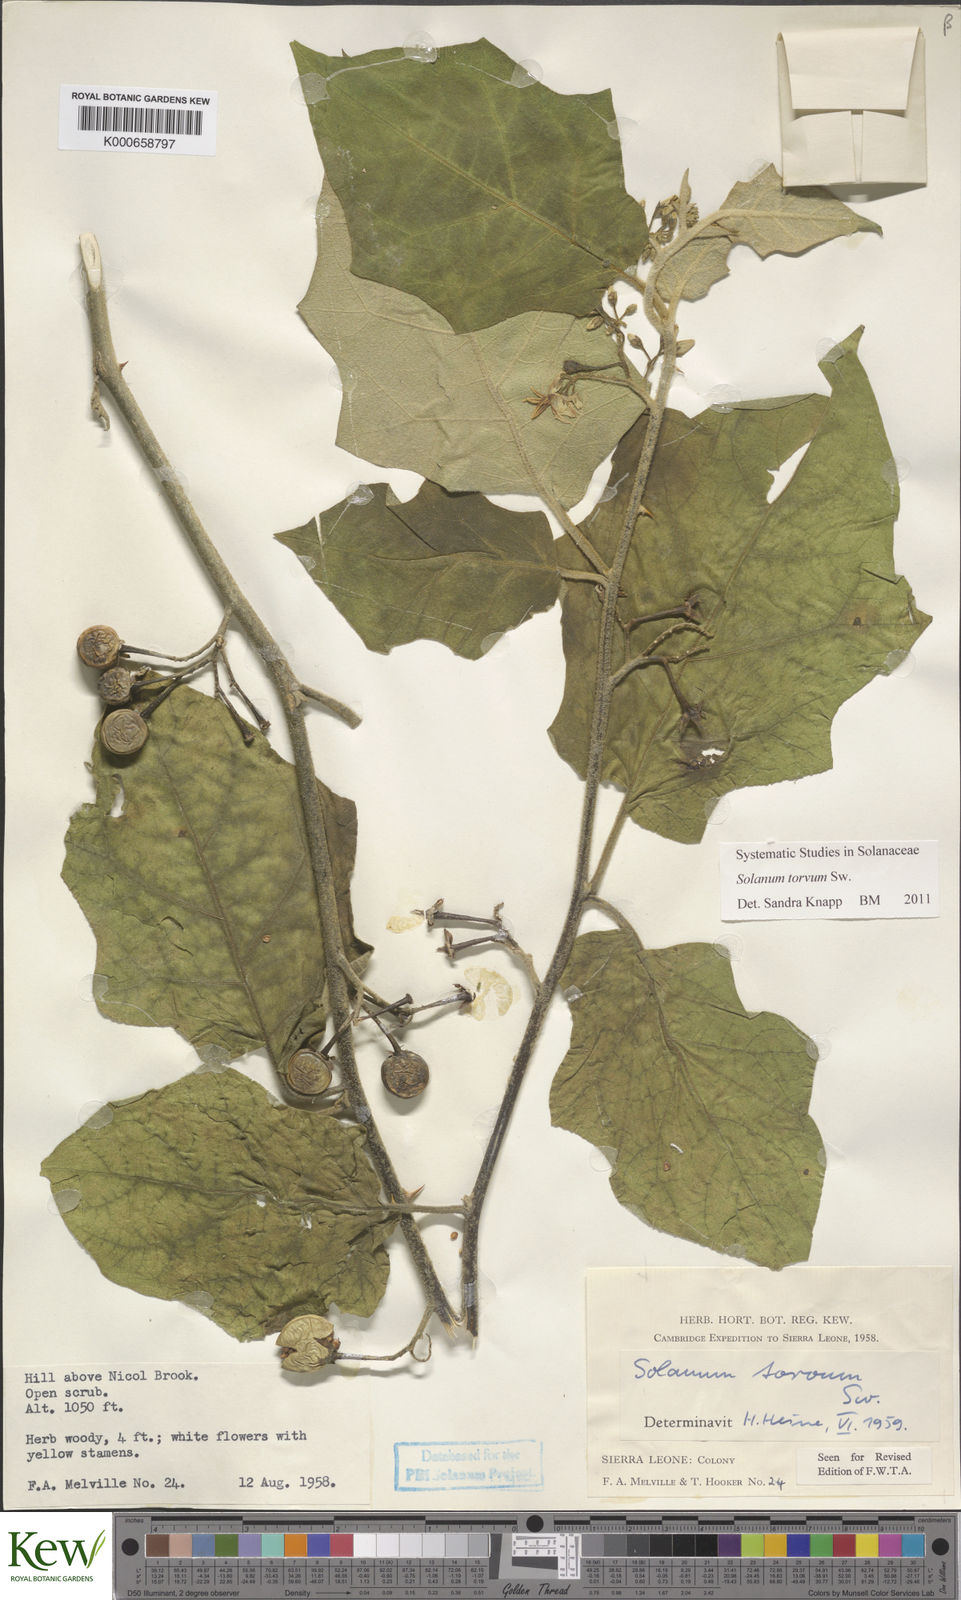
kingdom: Plantae
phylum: Tracheophyta
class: Magnoliopsida
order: Solanales
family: Solanaceae
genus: Solanum
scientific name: Solanum torvum
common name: Turkey berry
